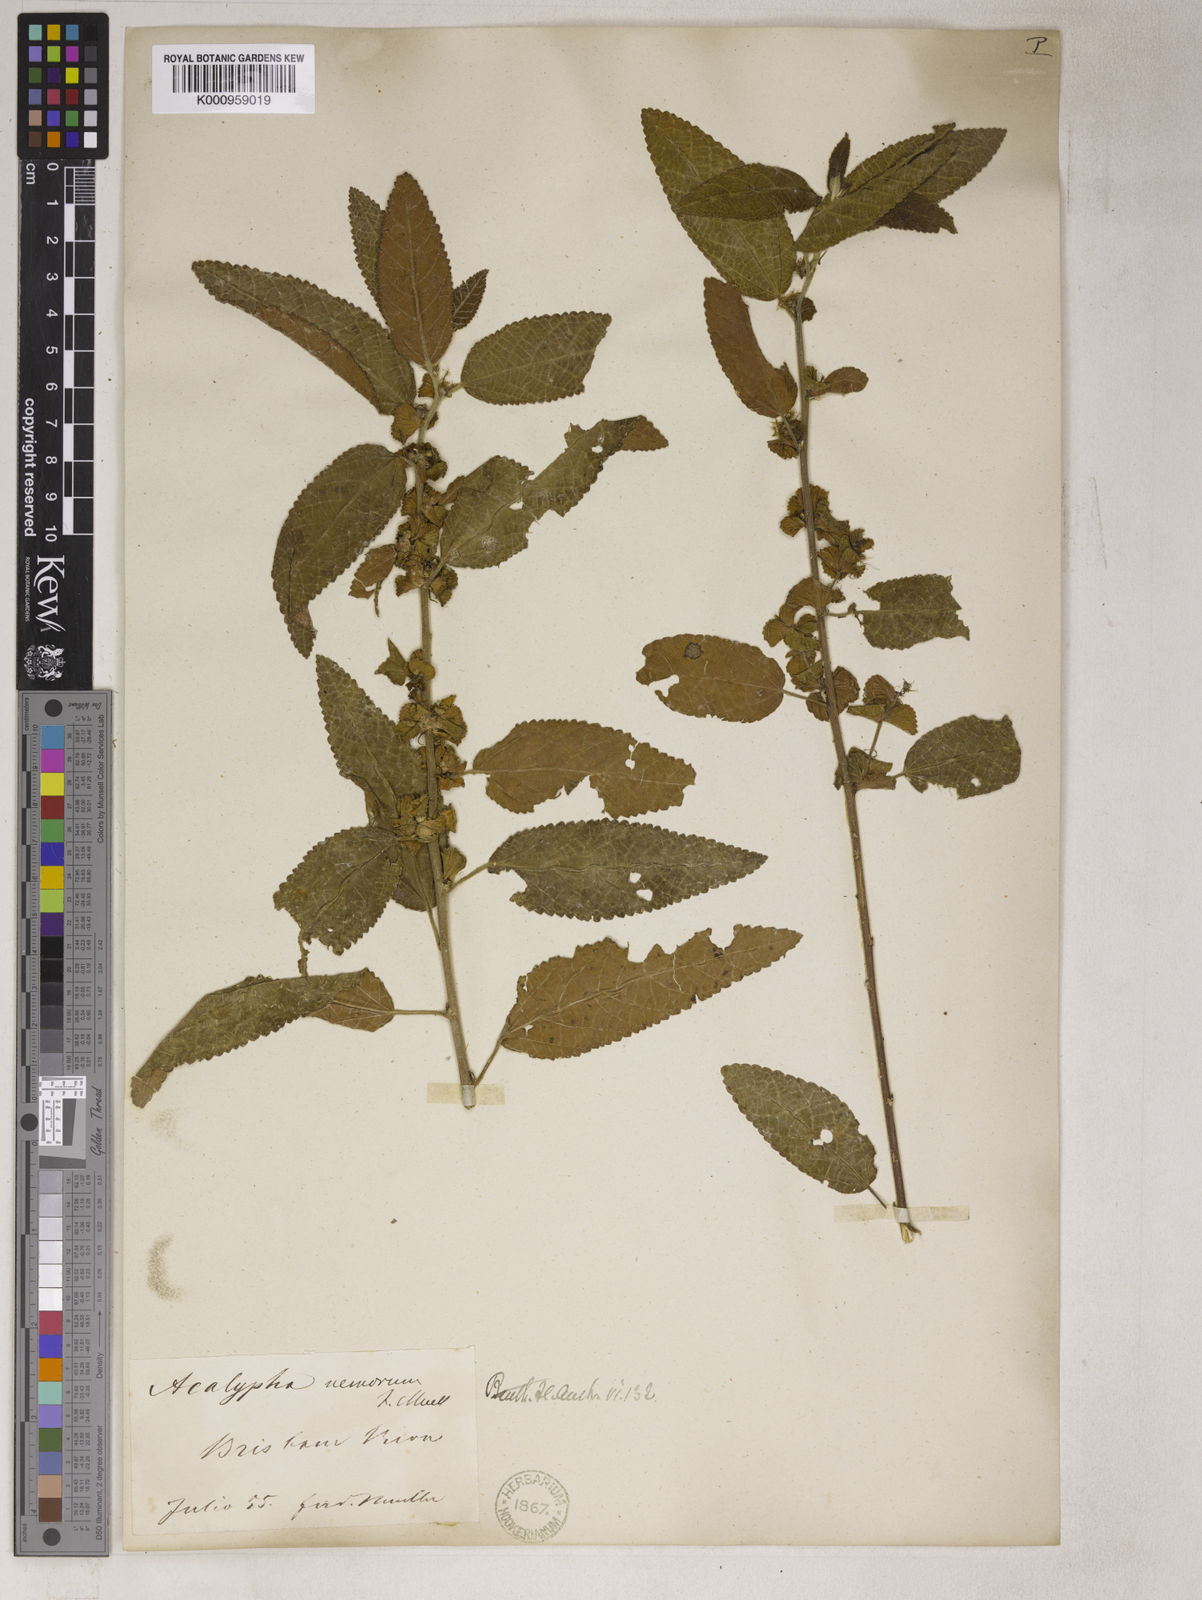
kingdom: Plantae
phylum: Tracheophyta
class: Magnoliopsida
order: Malpighiales
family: Euphorbiaceae
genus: Acalypha
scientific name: Acalypha
